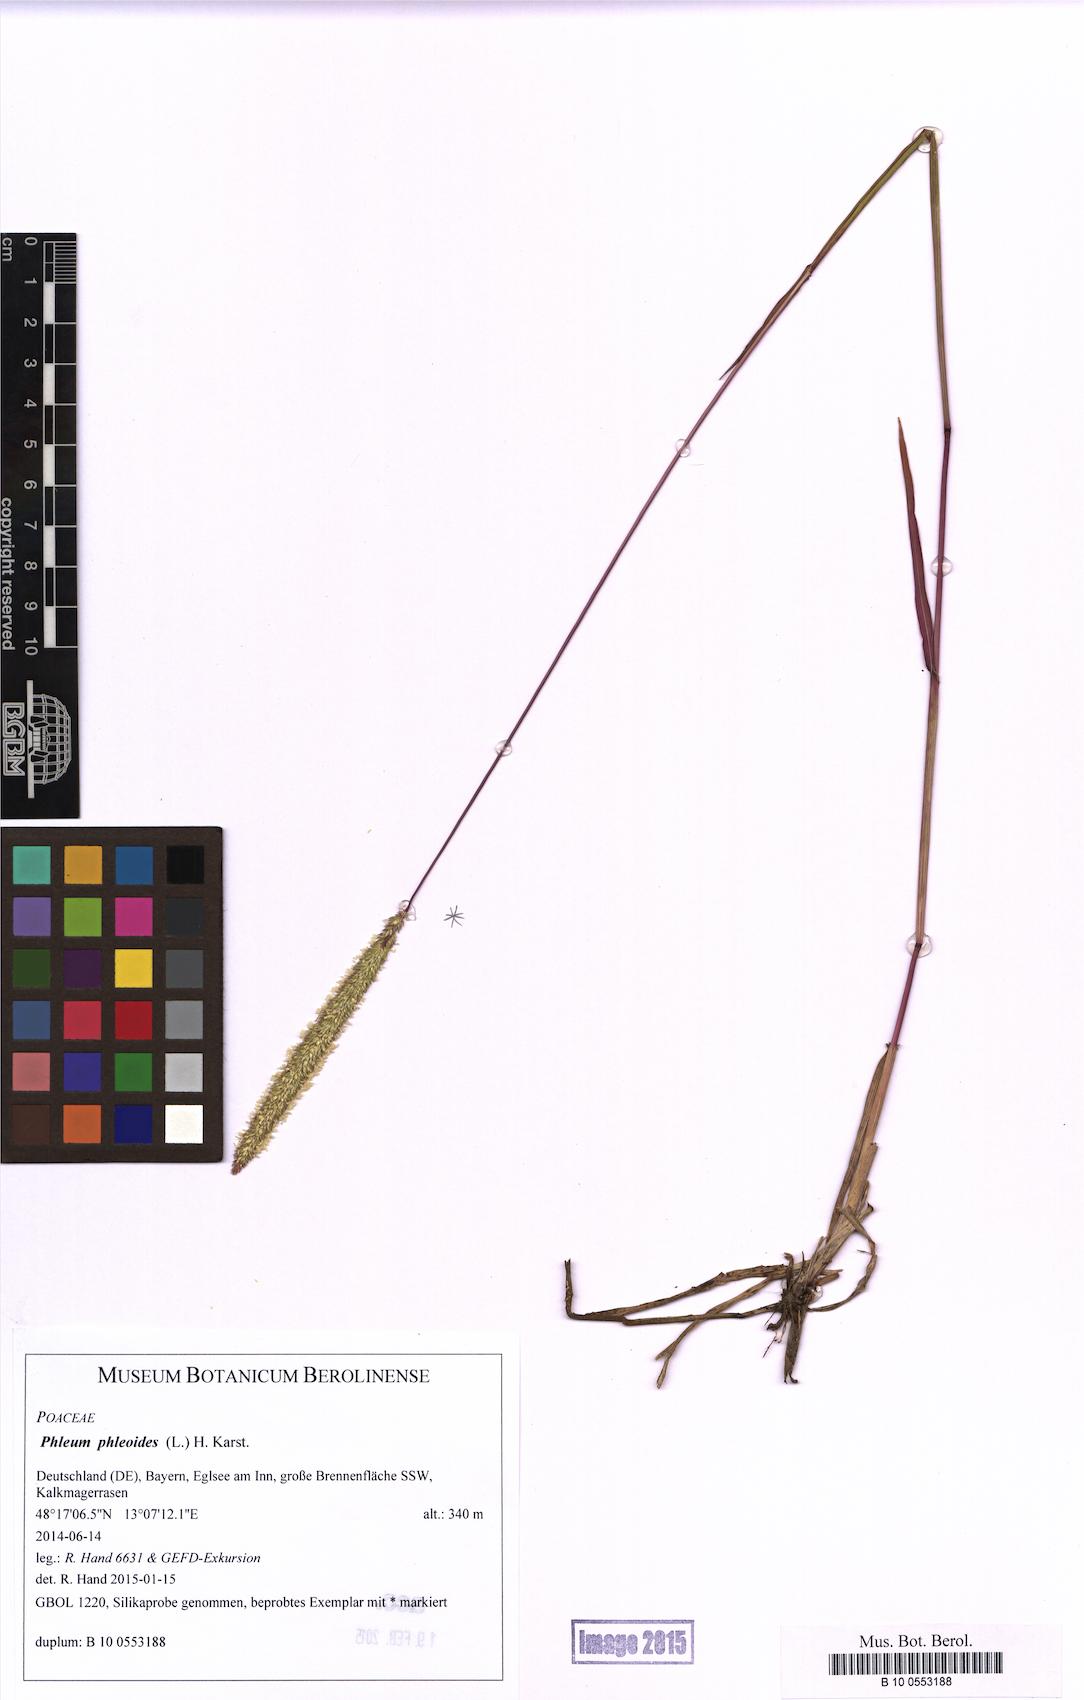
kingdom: Plantae
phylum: Tracheophyta
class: Liliopsida
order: Poales
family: Poaceae
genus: Phleum
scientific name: Phleum phleoides
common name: Purple-stem cat's-tail
